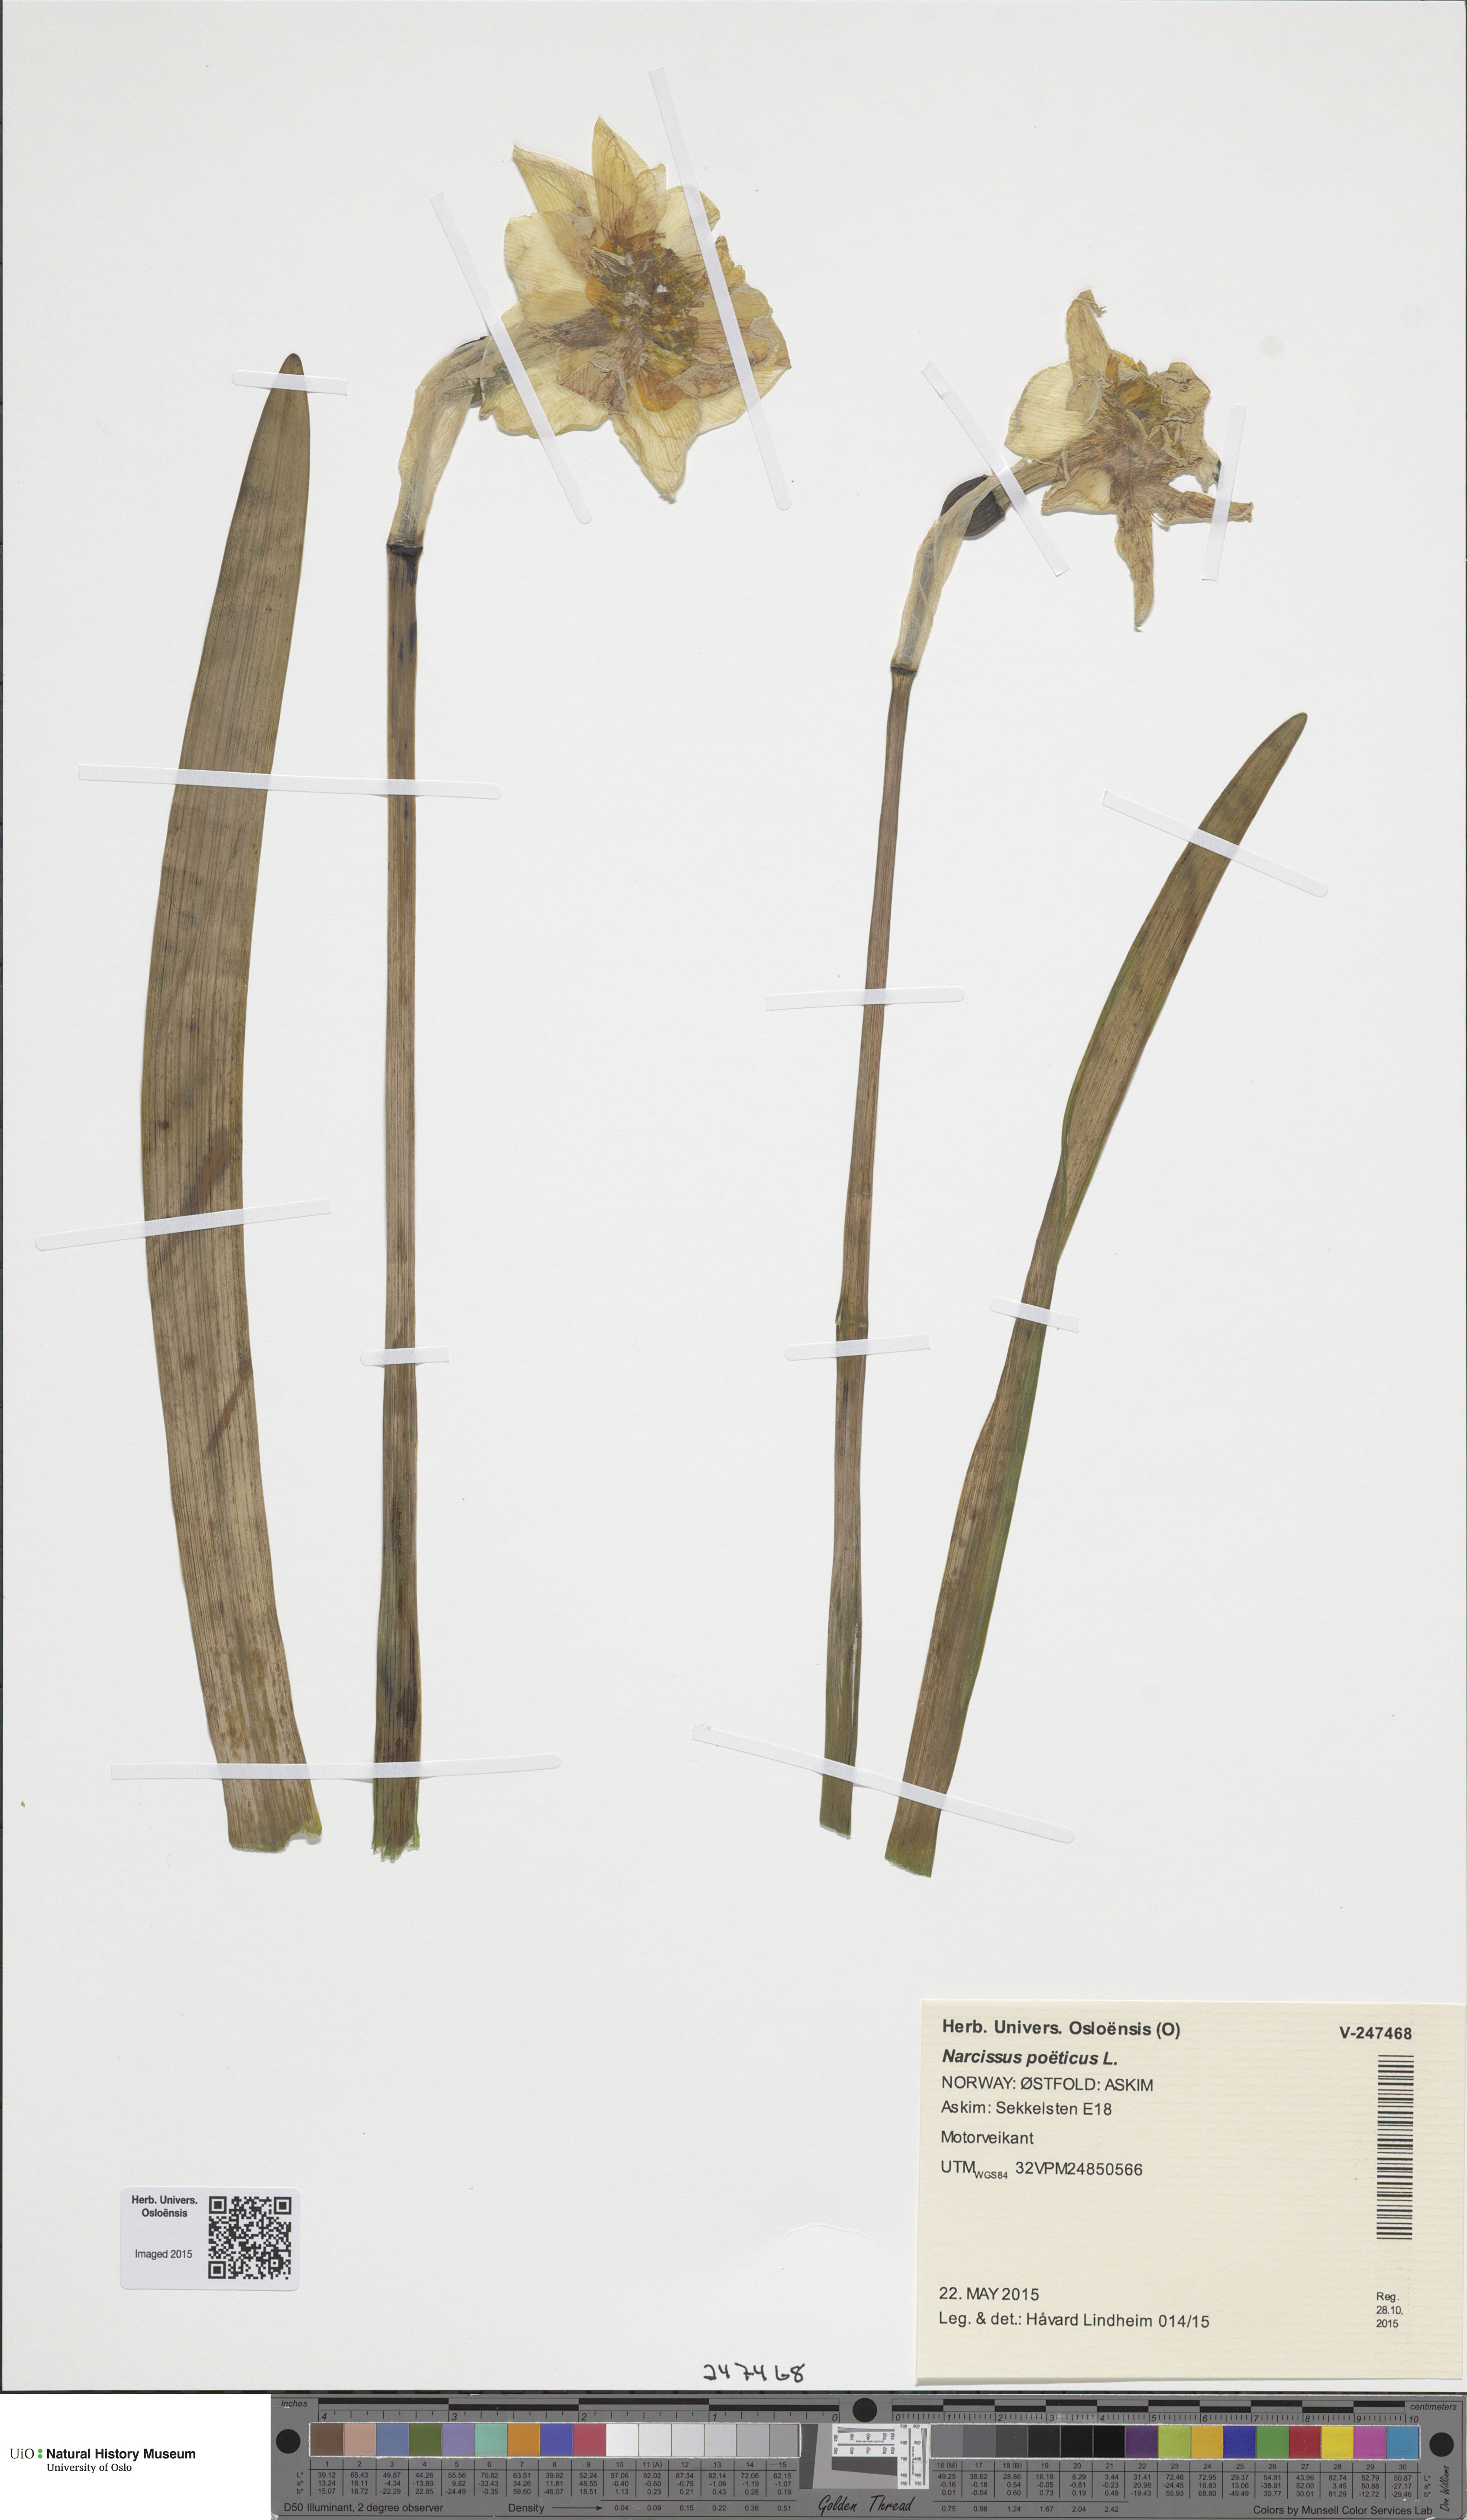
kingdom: Plantae
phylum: Tracheophyta
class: Liliopsida
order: Asparagales
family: Amaryllidaceae
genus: Narcissus
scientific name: Narcissus poeticus
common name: Pheasant's-eye daffodil
